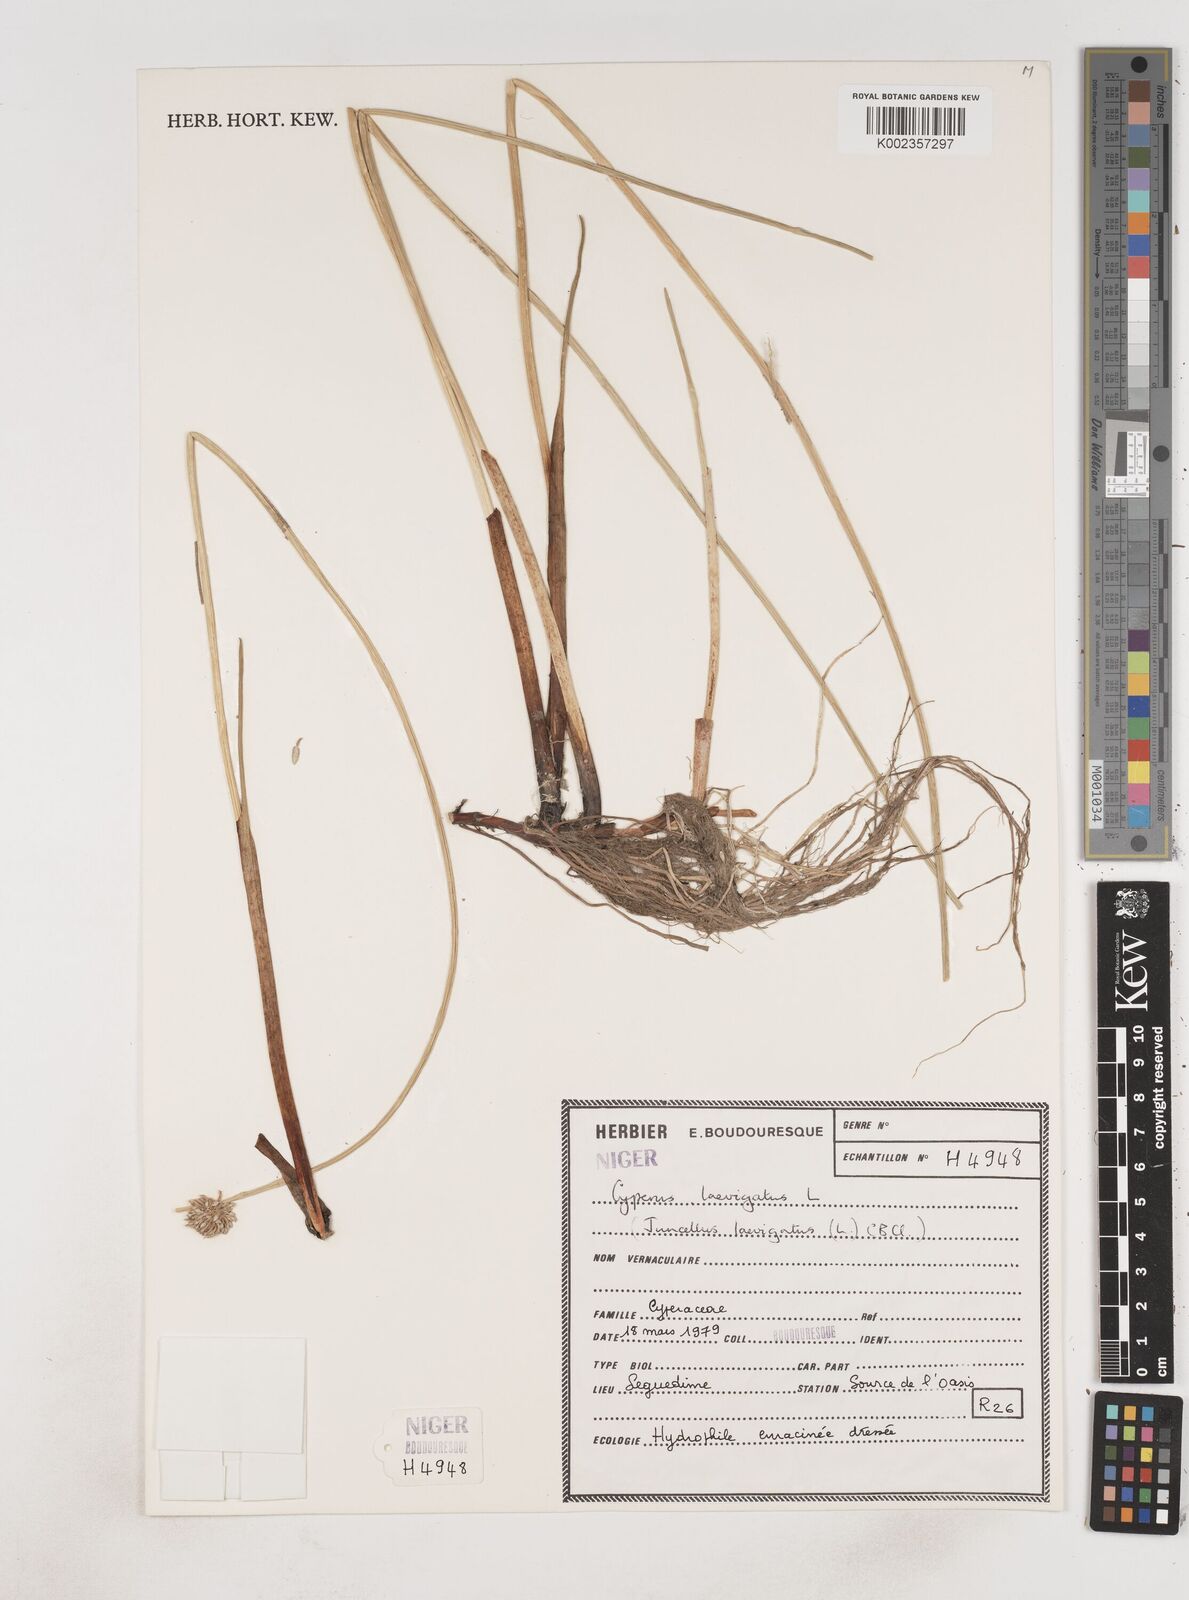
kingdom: Plantae
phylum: Tracheophyta
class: Liliopsida
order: Poales
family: Cyperaceae
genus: Cyperus
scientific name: Cyperus laevigatus
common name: Smooth flat sedge
